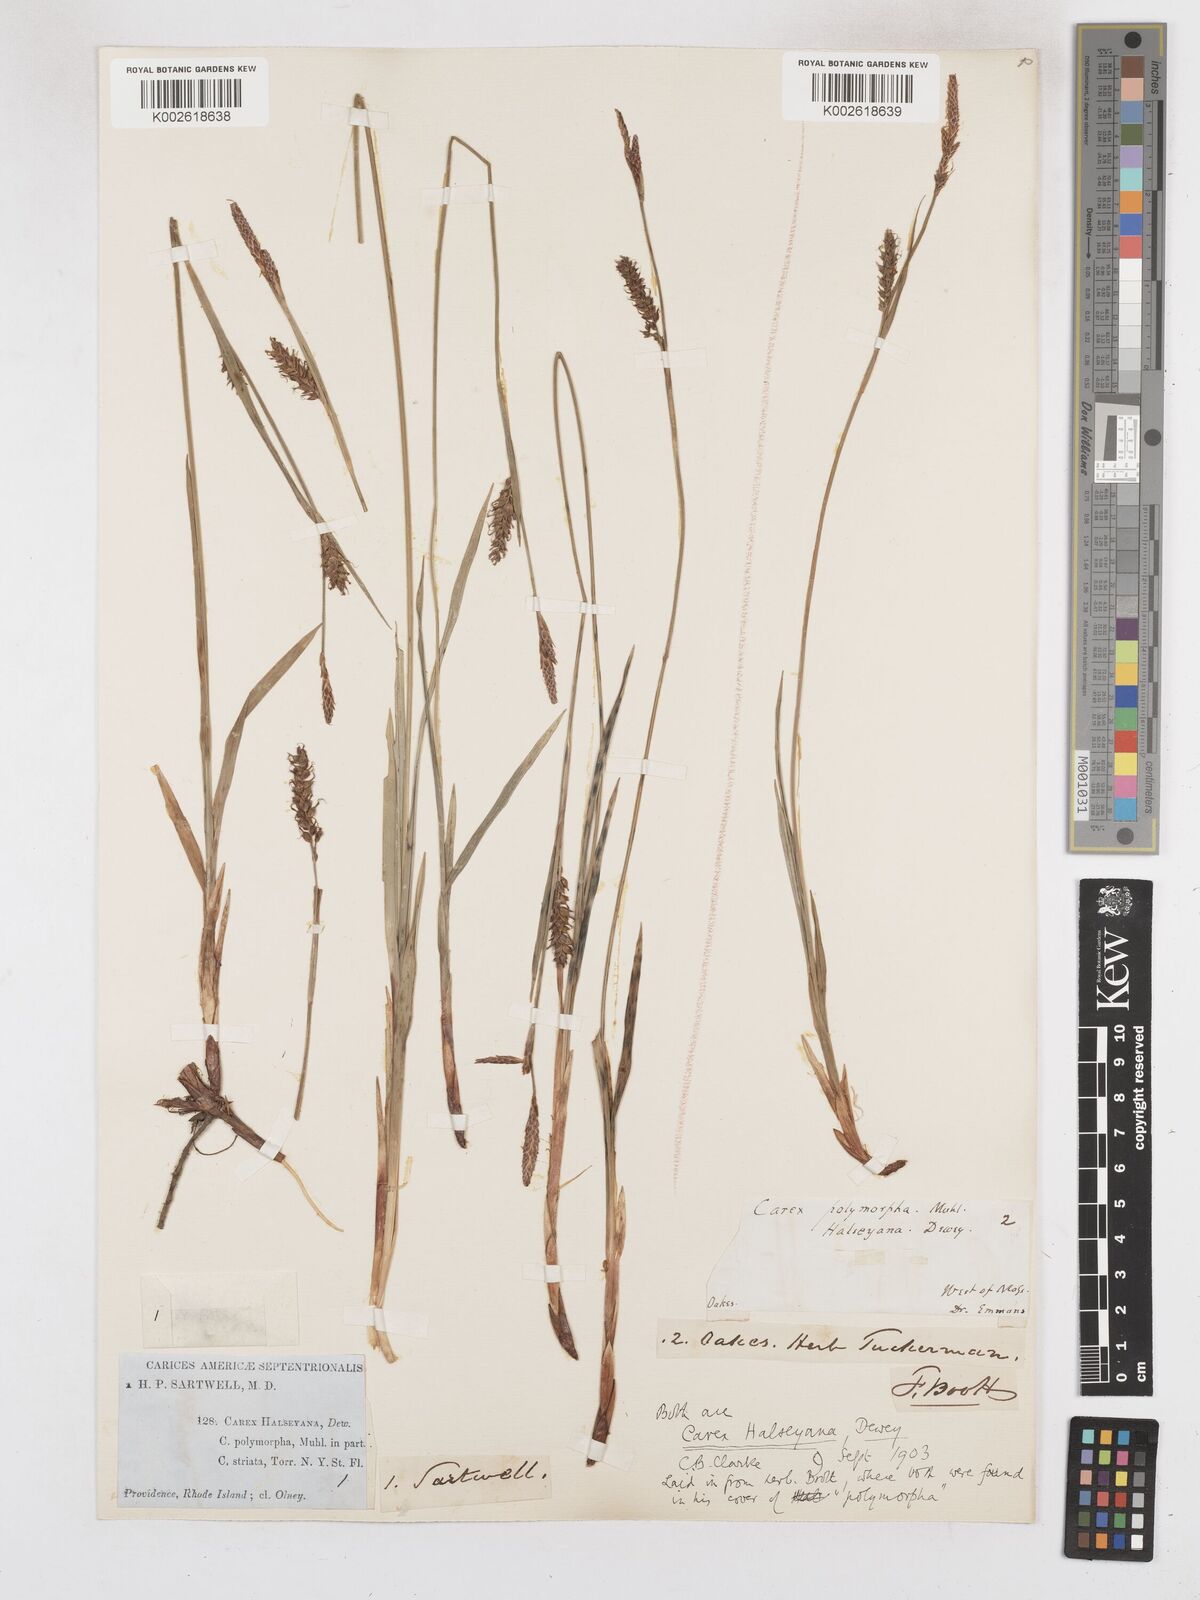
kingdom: Plantae
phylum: Tracheophyta
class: Liliopsida
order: Poales
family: Cyperaceae
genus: Carex
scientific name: Carex polymorpha
